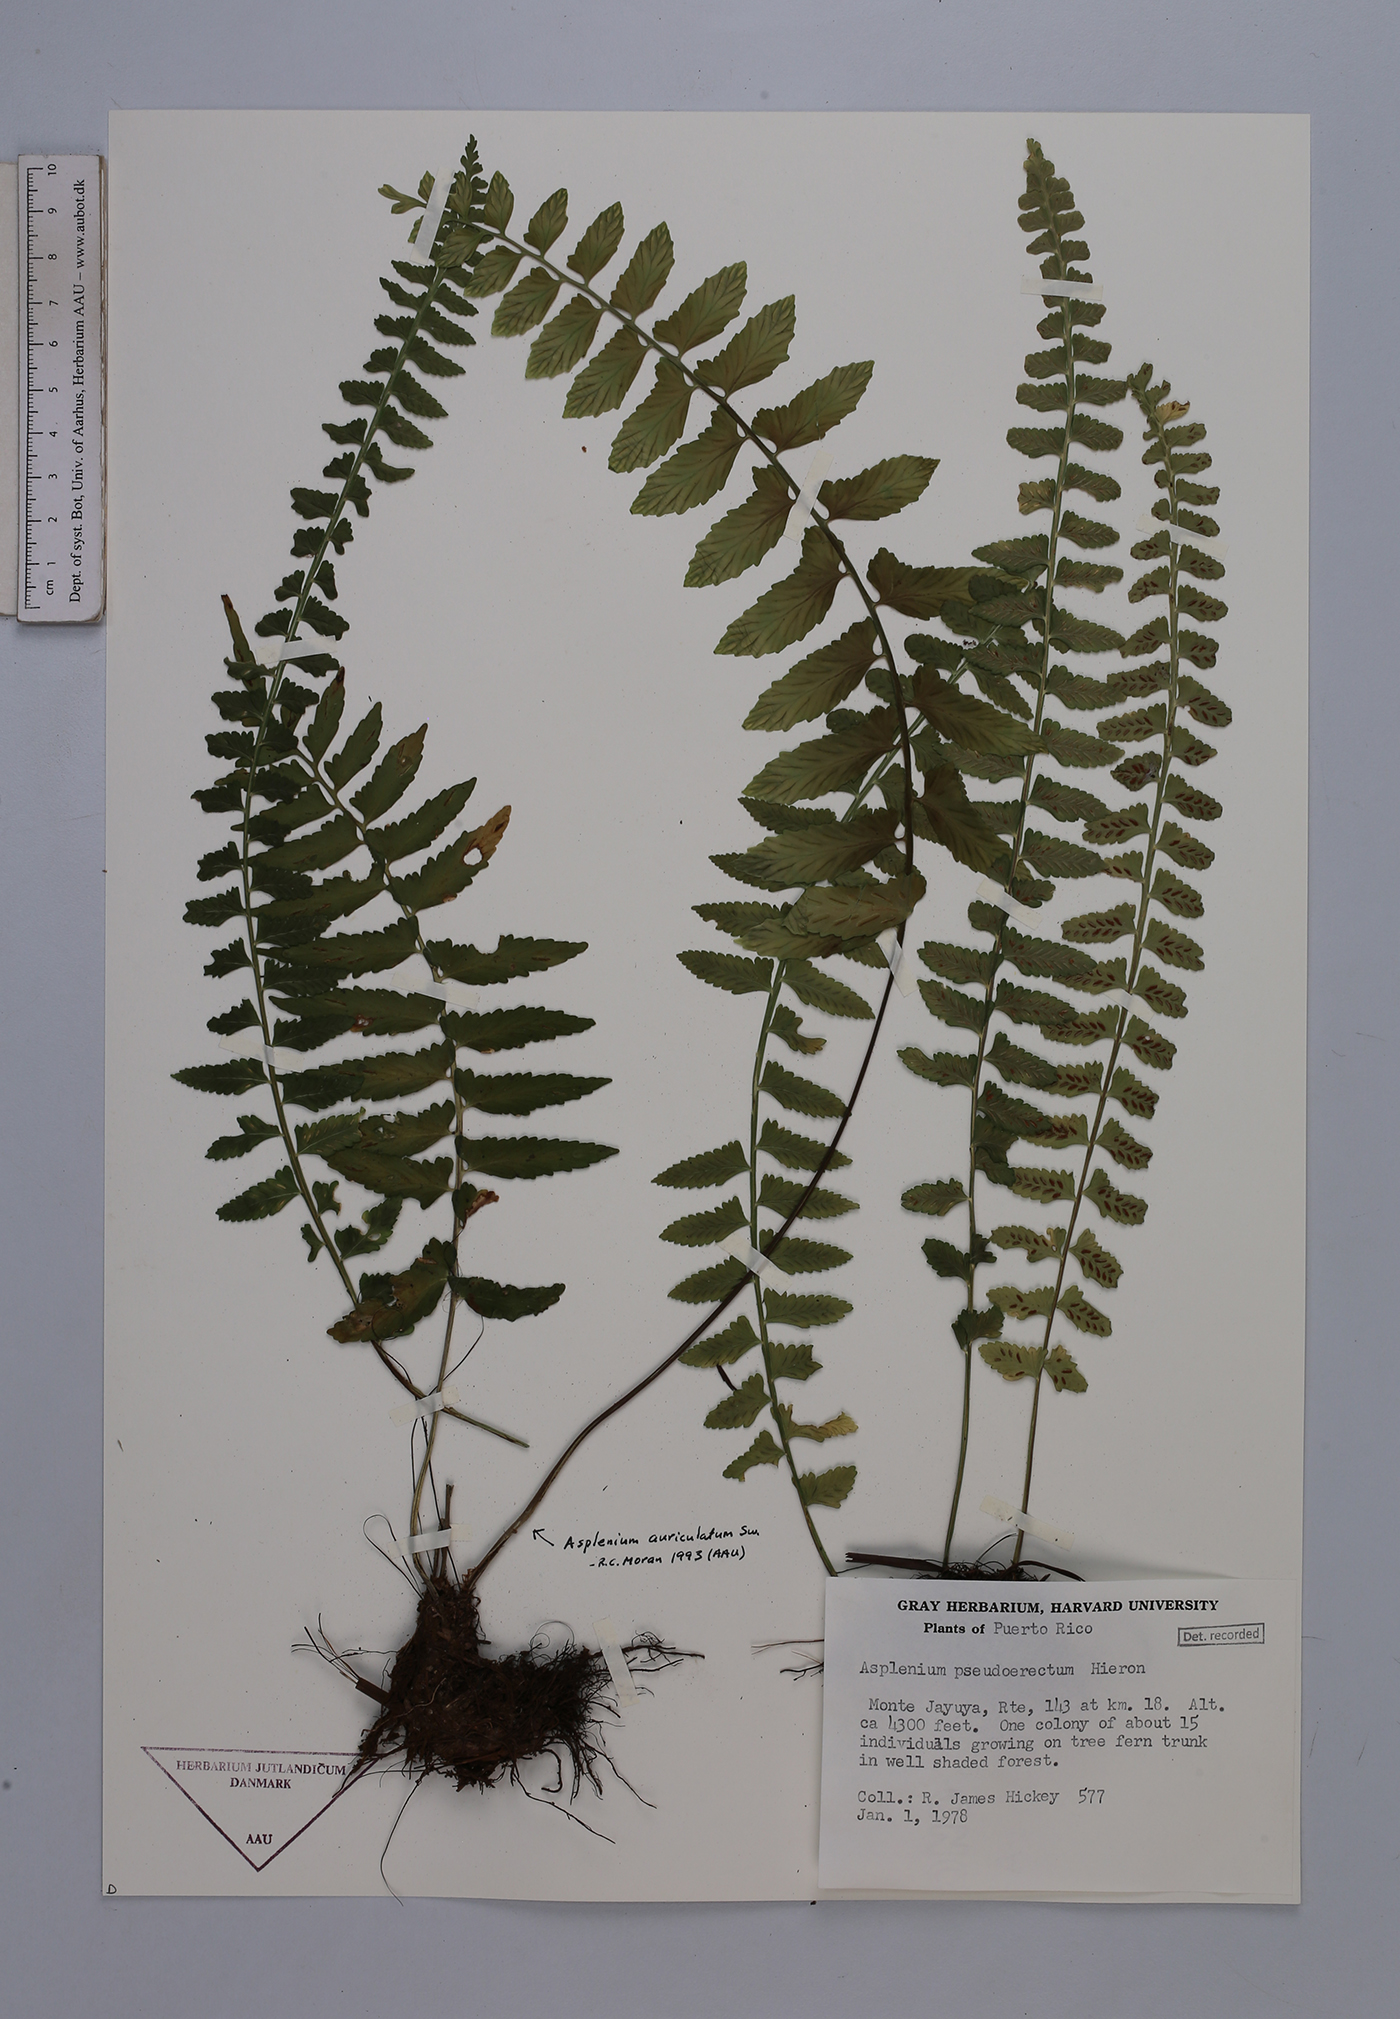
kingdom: Plantae
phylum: Tracheophyta
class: Polypodiopsida
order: Polypodiales
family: Aspleniaceae
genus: Asplenium
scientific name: Asplenium pseuderectum
